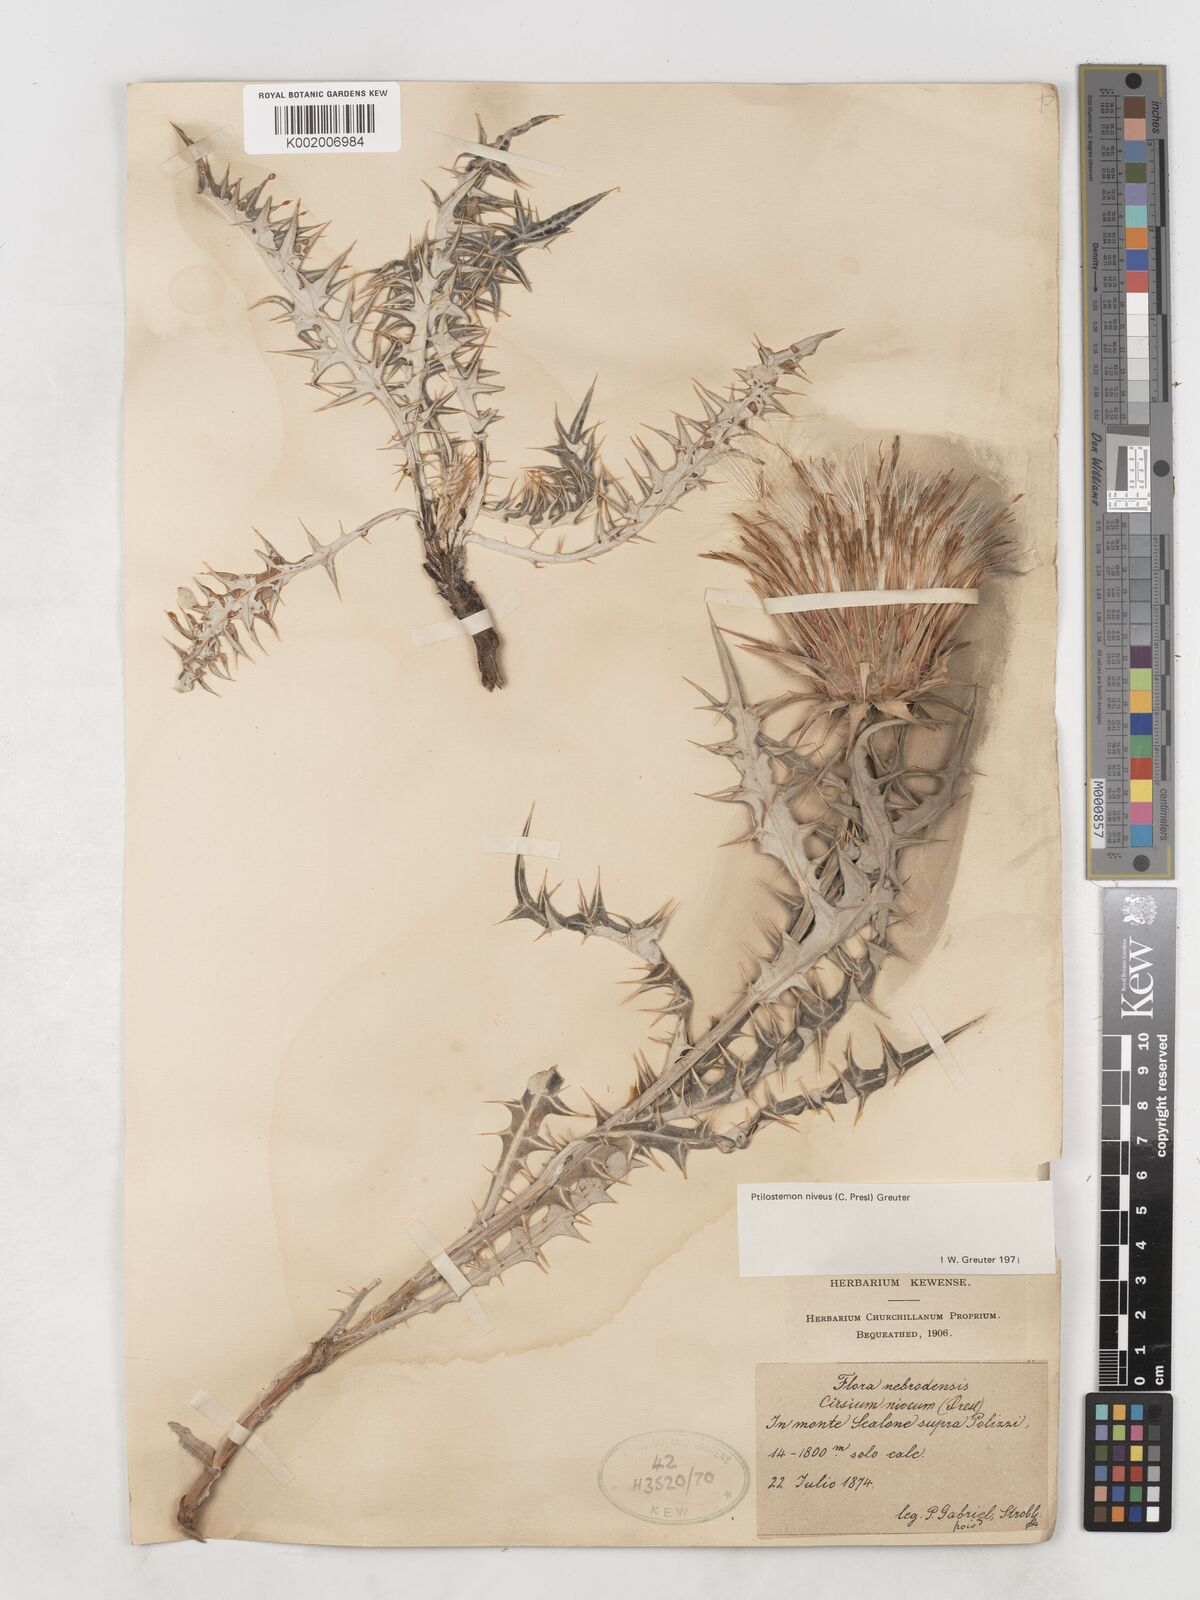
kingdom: Plantae
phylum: Tracheophyta
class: Magnoliopsida
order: Asterales
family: Asteraceae
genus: Ptilostemon
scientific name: Ptilostemon niveus
